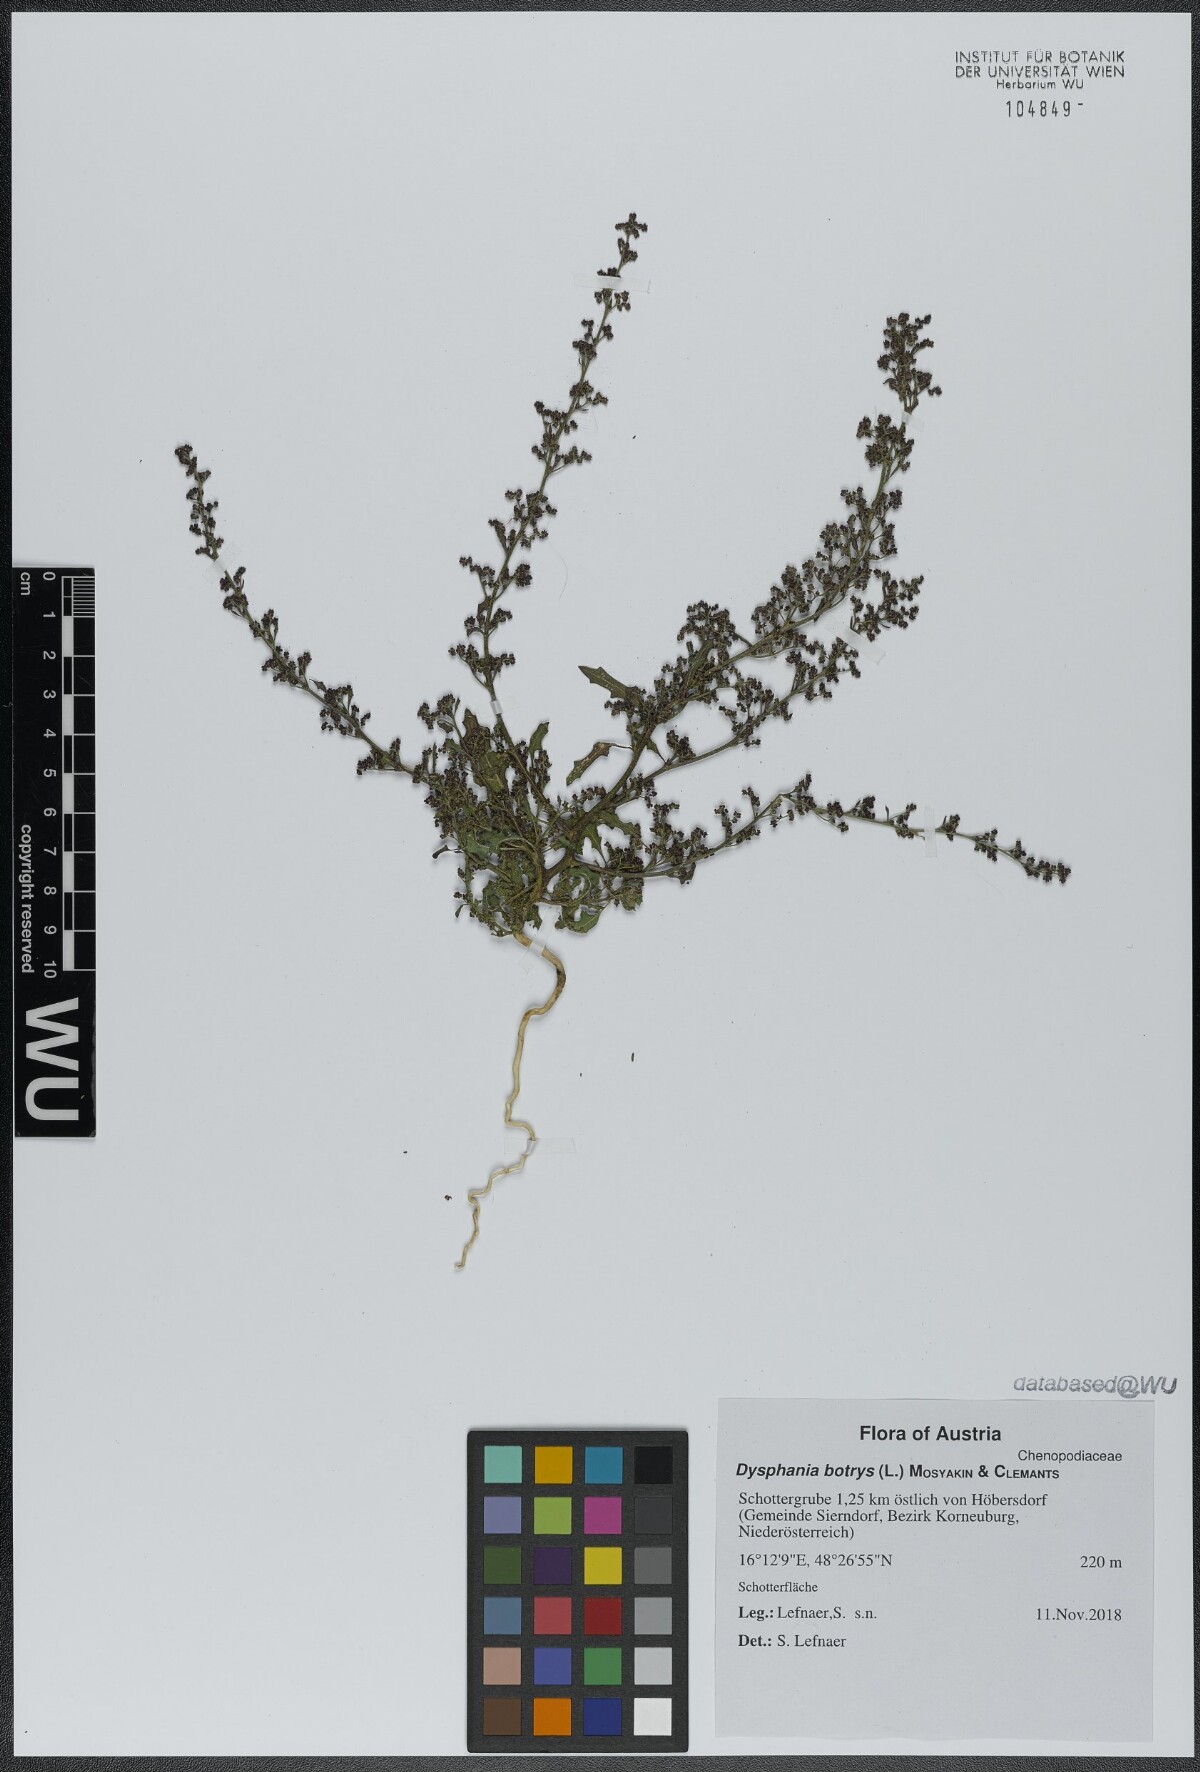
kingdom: Plantae
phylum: Tracheophyta
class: Magnoliopsida
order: Caryophyllales
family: Amaranthaceae
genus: Dysphania
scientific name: Dysphania botrys
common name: Feather-geranium
